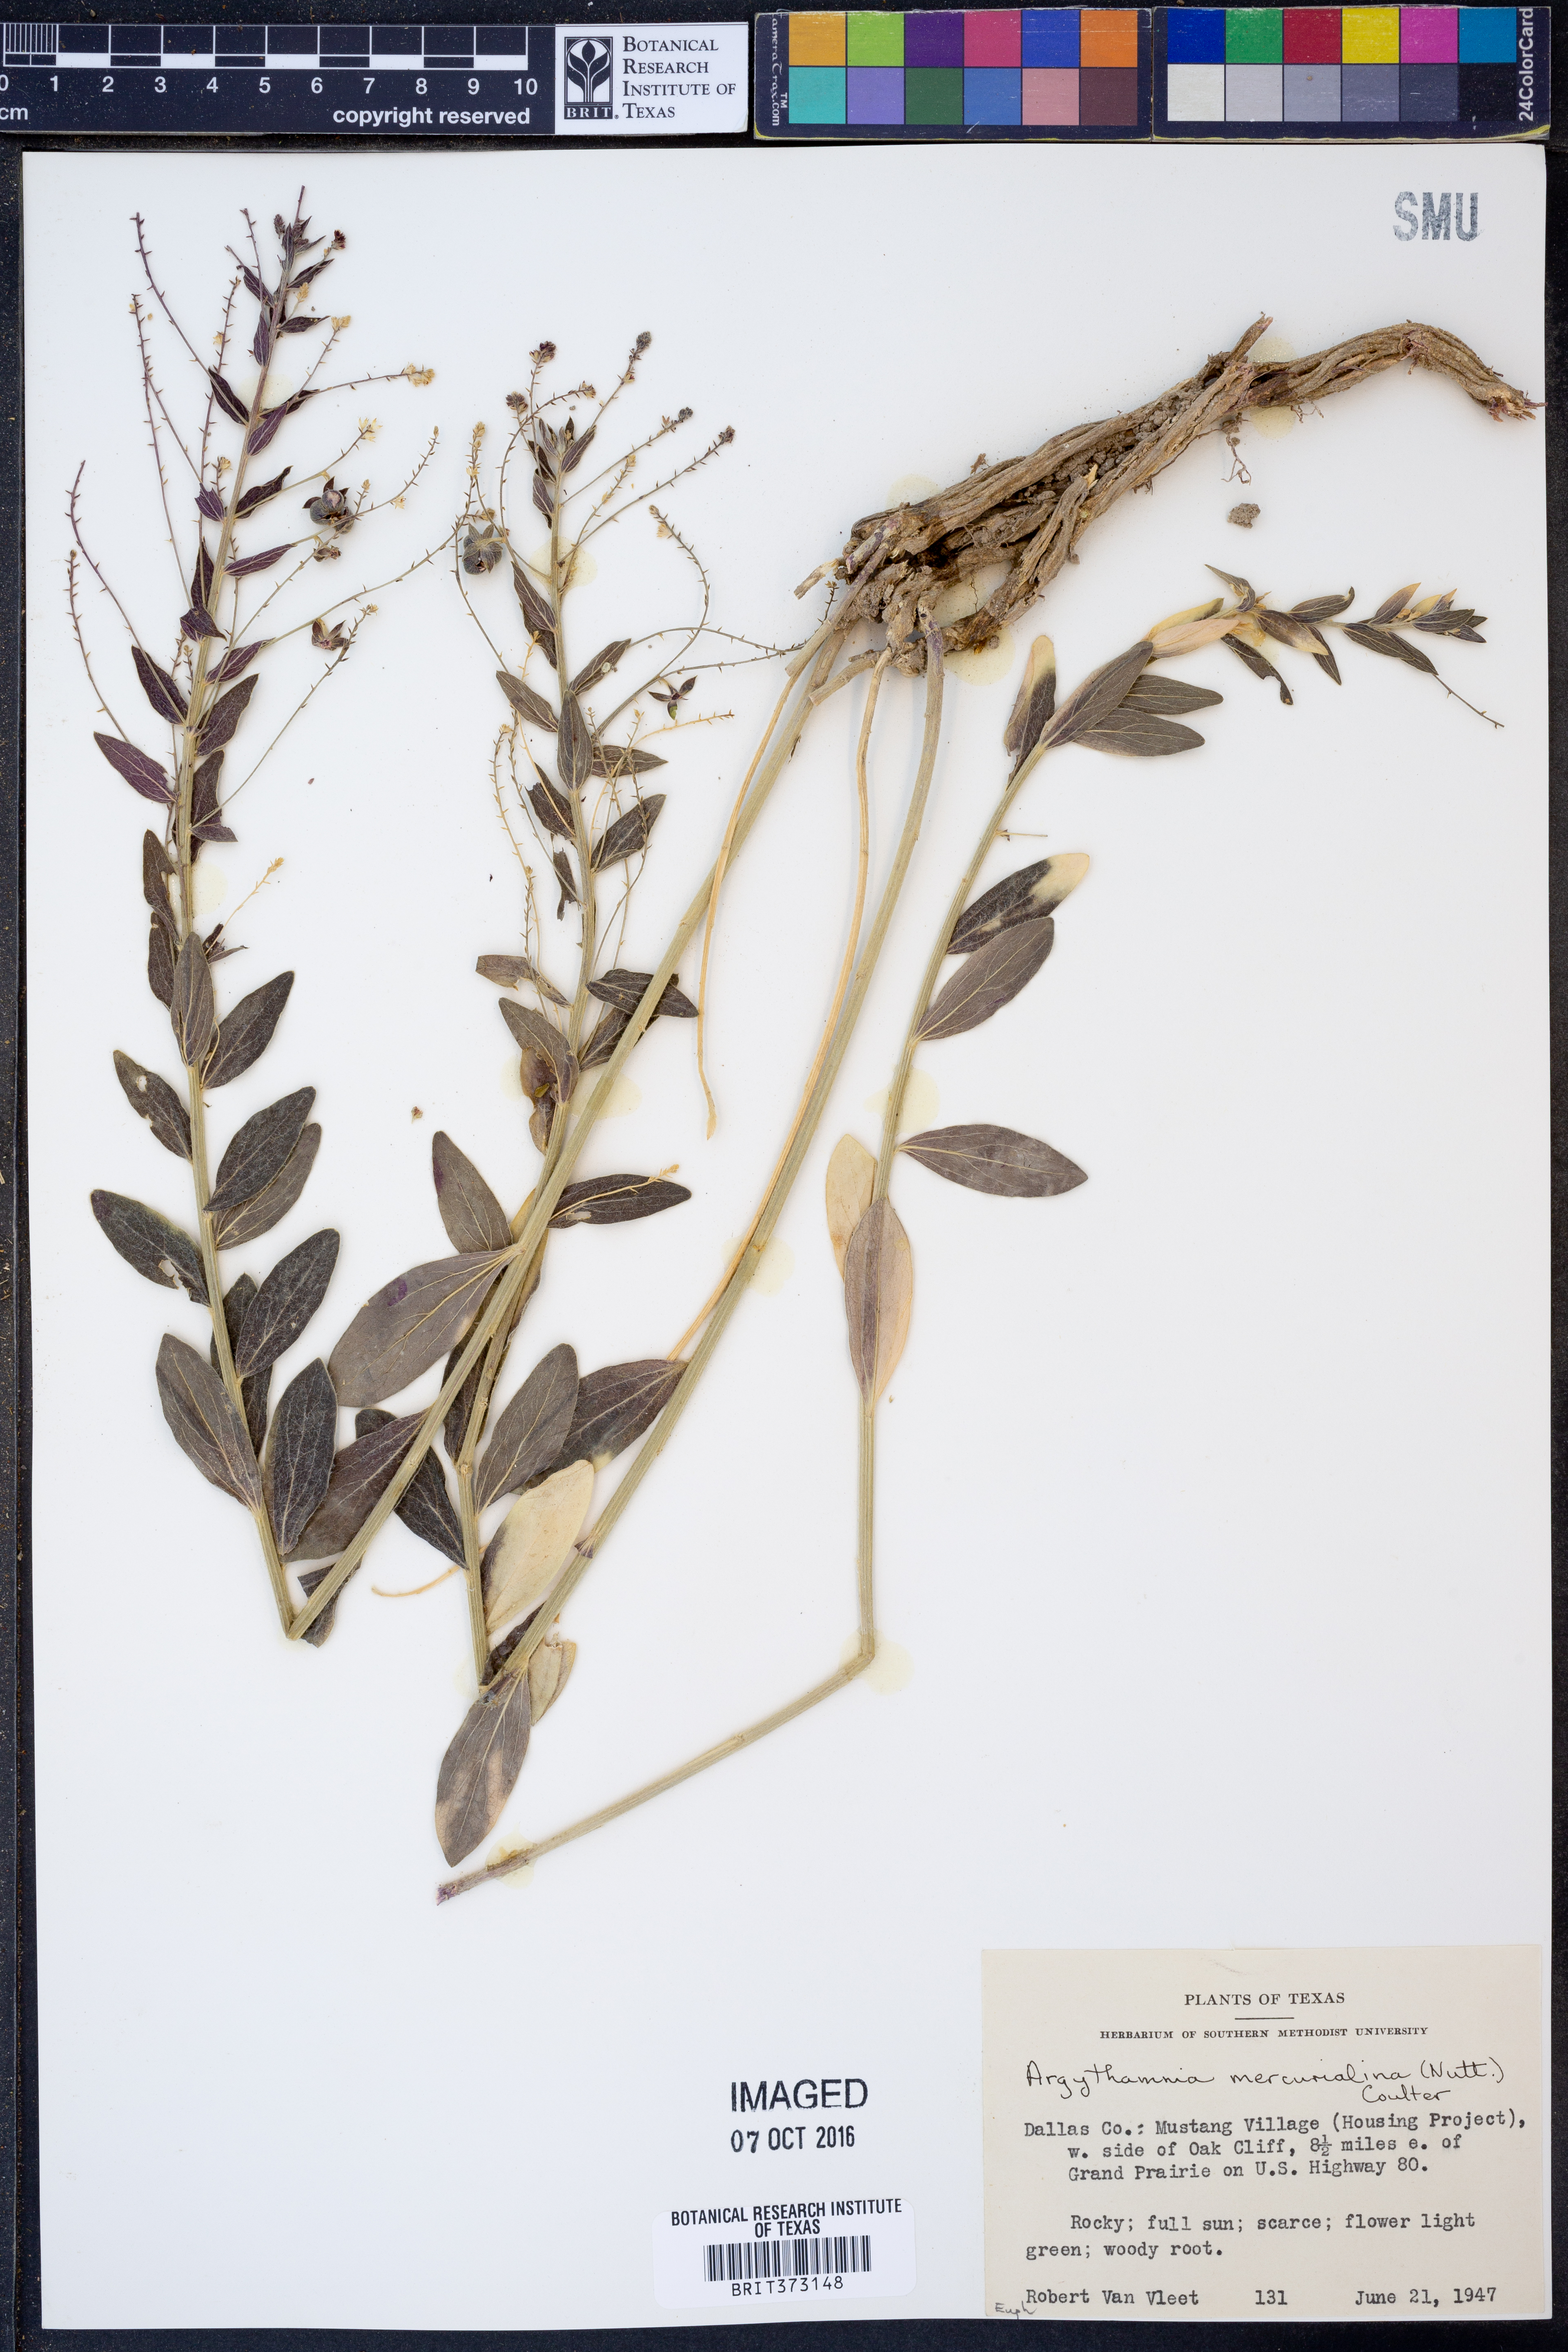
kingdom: Plantae
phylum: Tracheophyta
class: Magnoliopsida
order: Malpighiales
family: Euphorbiaceae
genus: Ditaxis
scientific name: Ditaxis mercurialina
